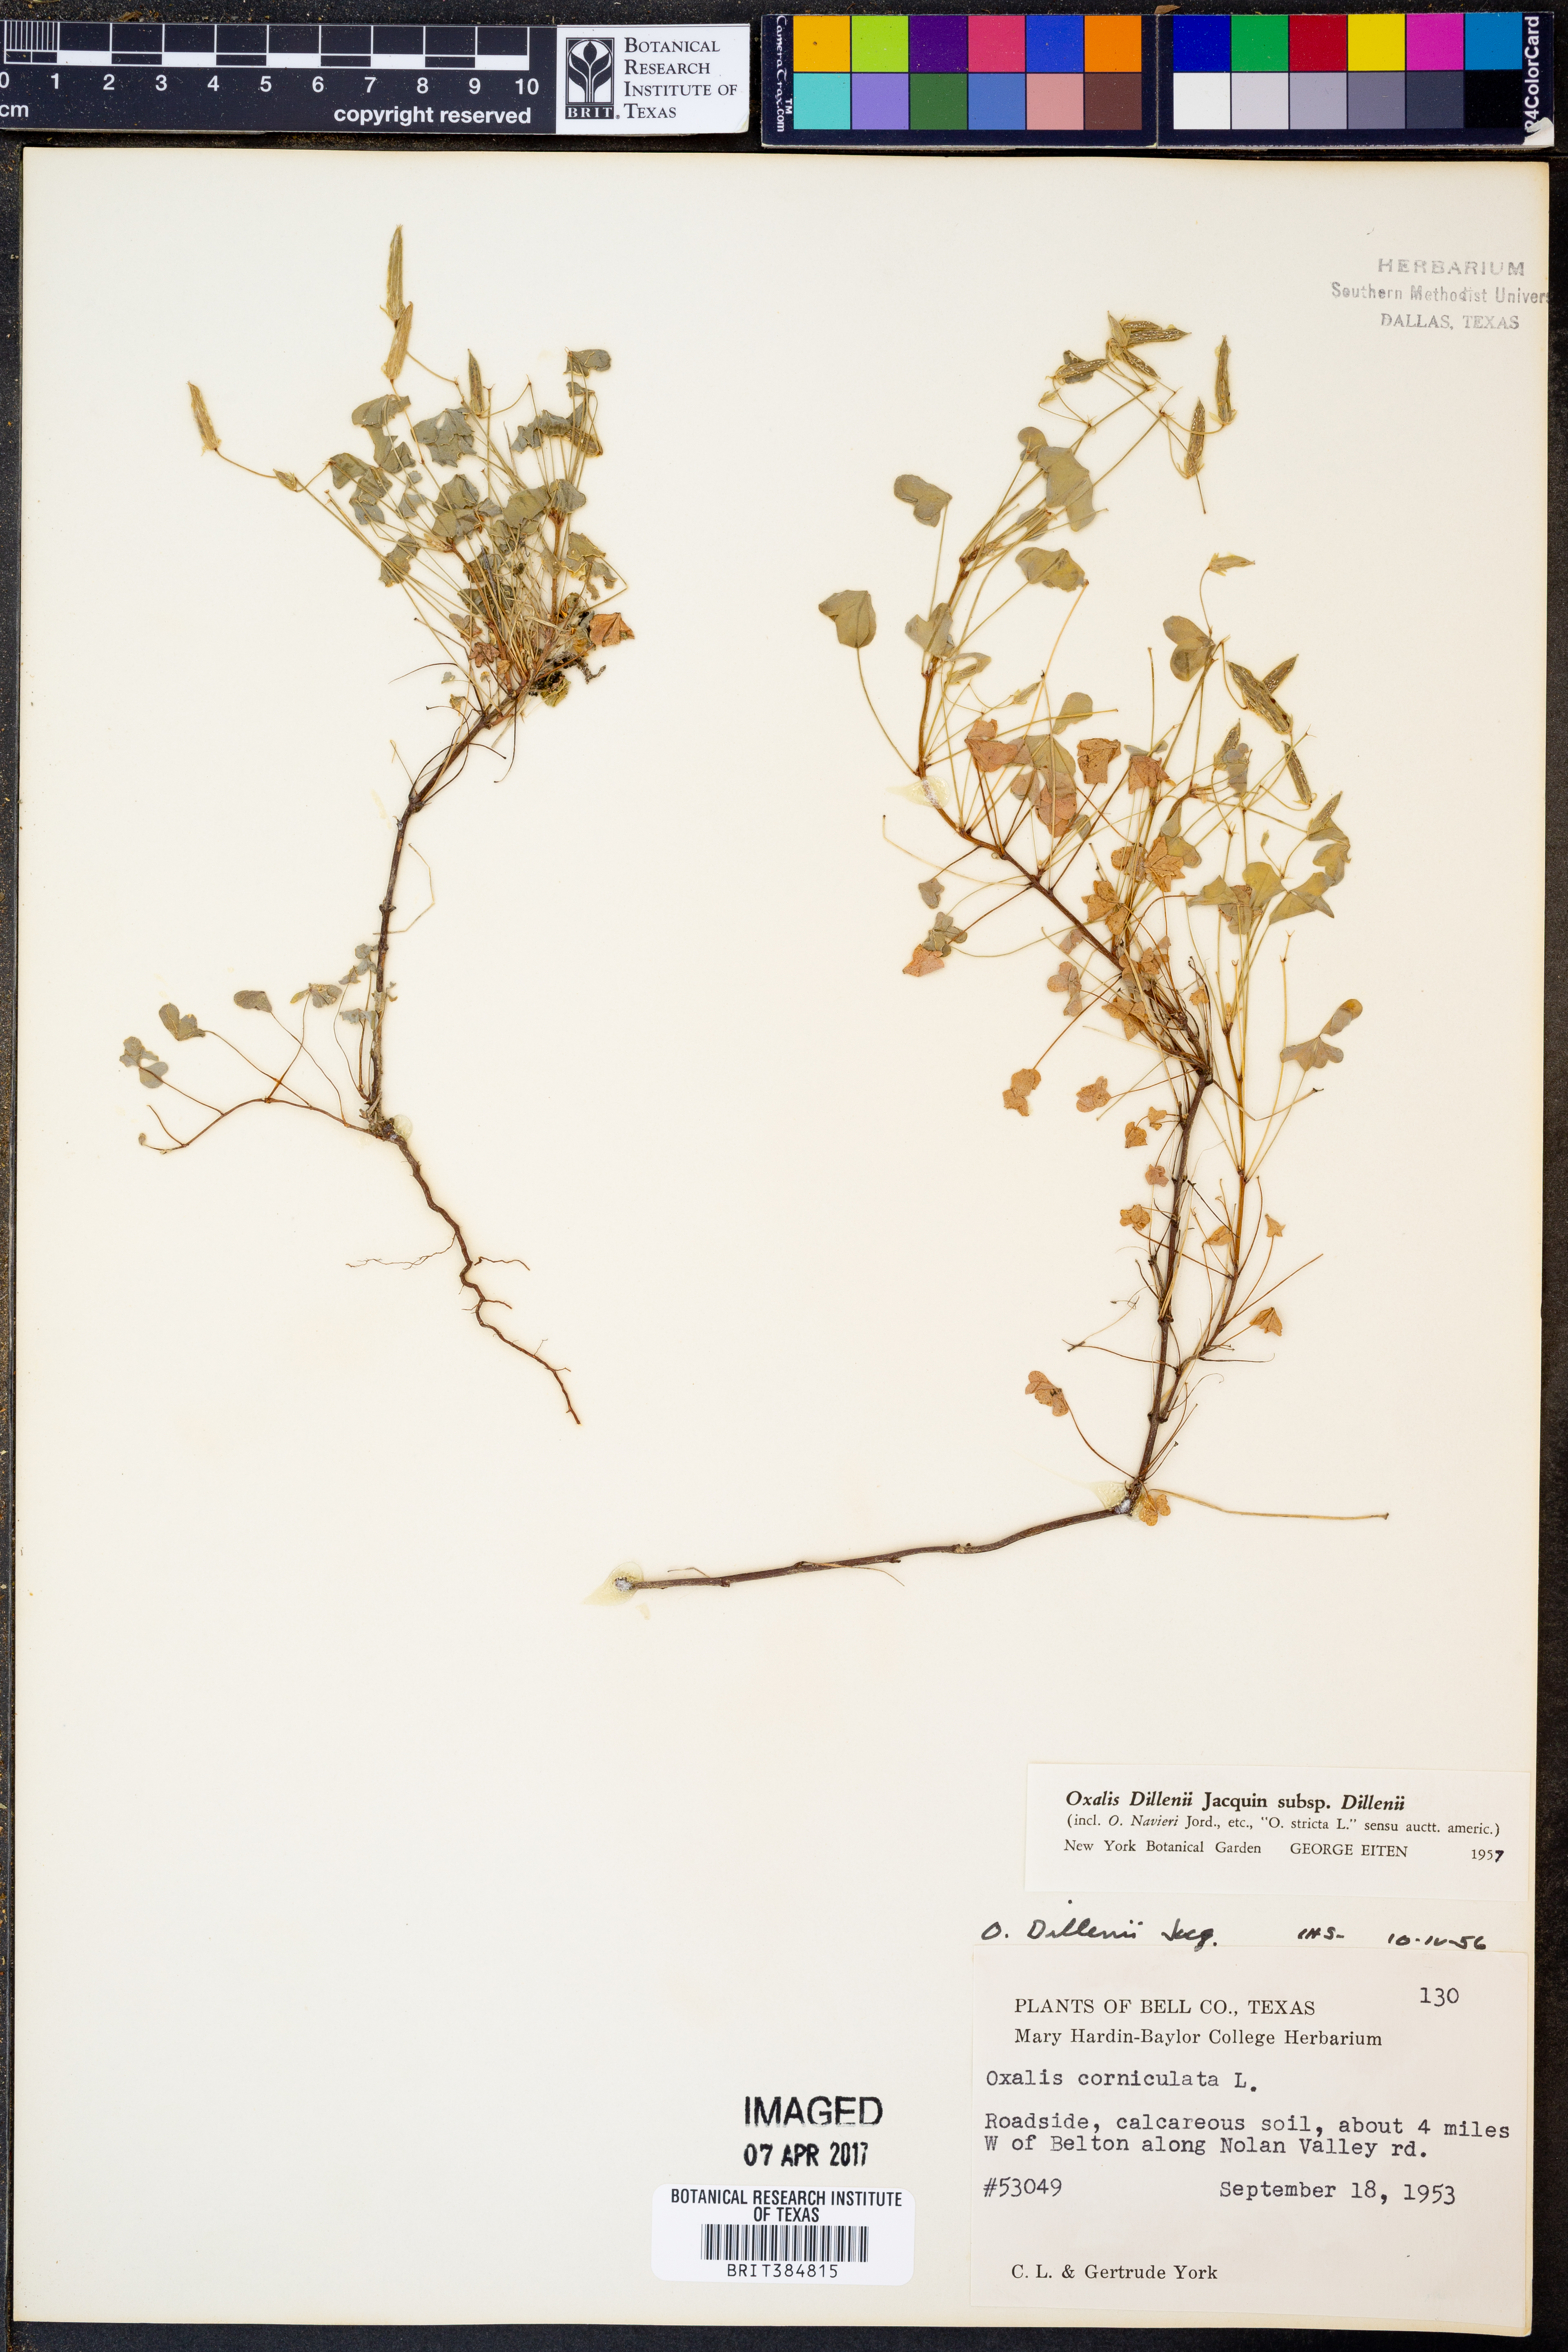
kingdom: Plantae
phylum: Tracheophyta
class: Magnoliopsida
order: Oxalidales
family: Oxalidaceae
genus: Oxalis
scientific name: Oxalis dillenii
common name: Sussex yellow-sorrel
